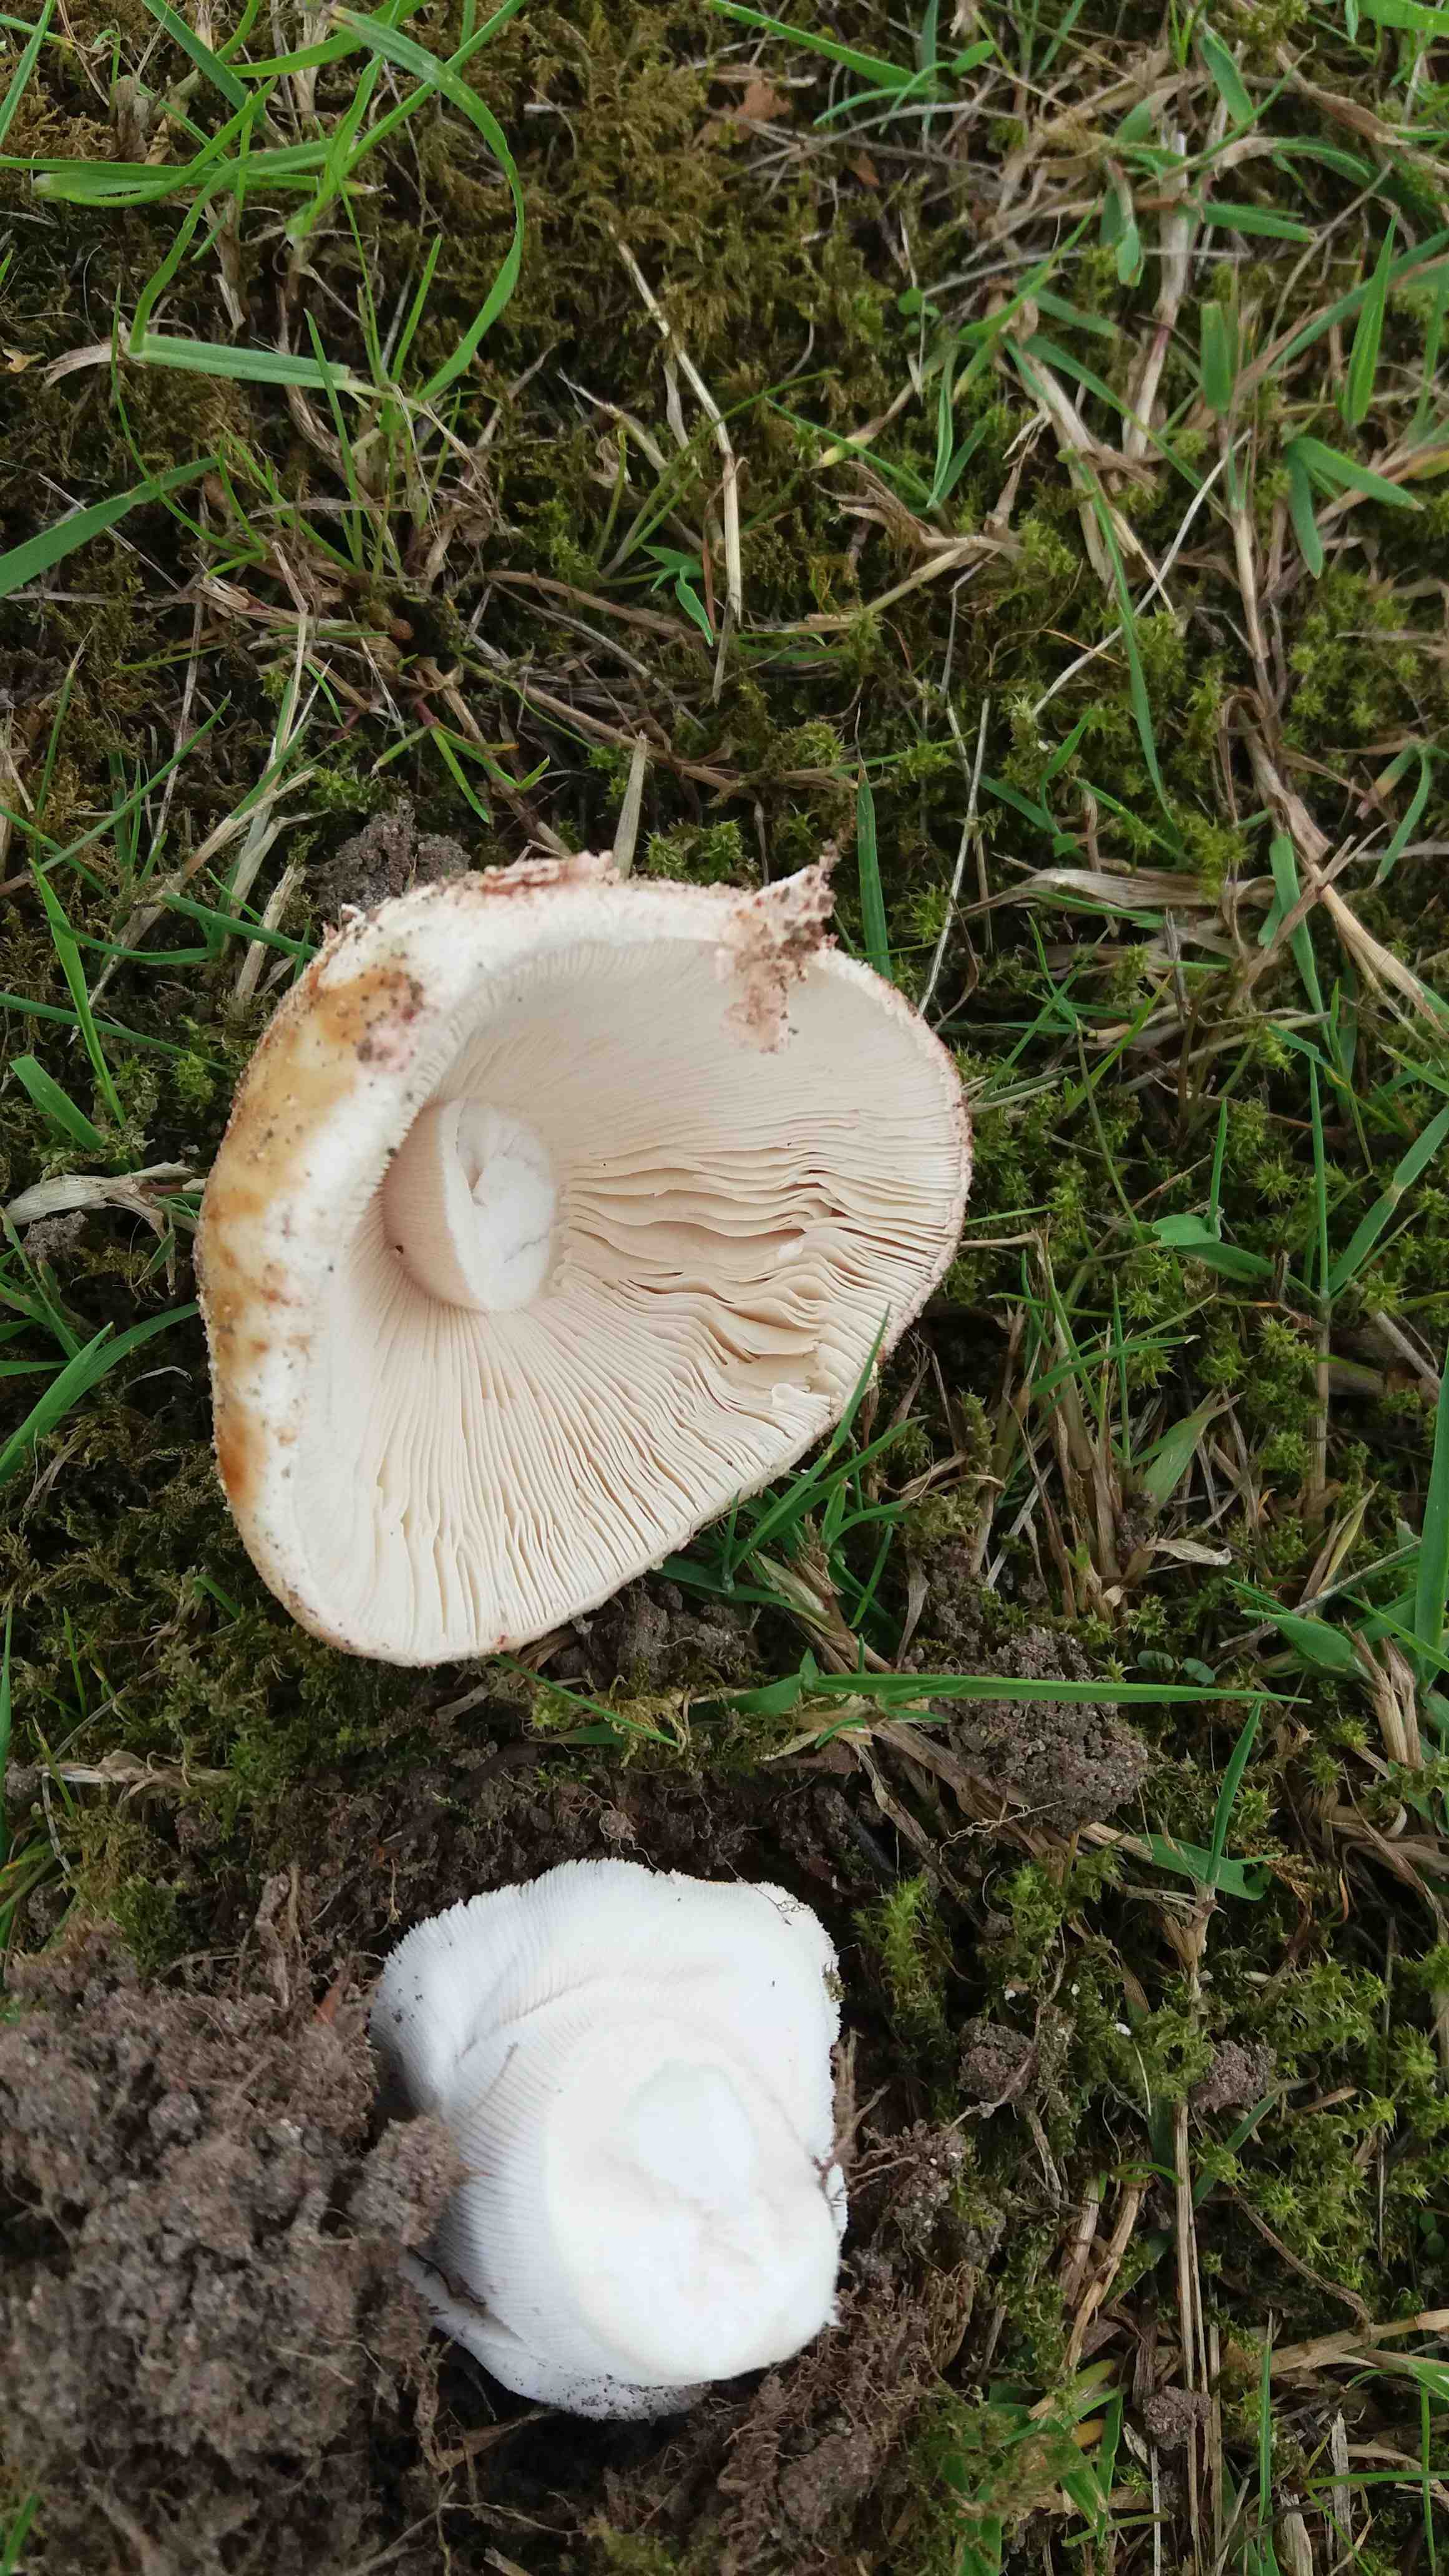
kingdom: Fungi
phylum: Basidiomycota
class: Agaricomycetes
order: Agaricales
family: Amanitaceae
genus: Amanita
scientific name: Amanita rubescens
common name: rødmende fluesvamp
